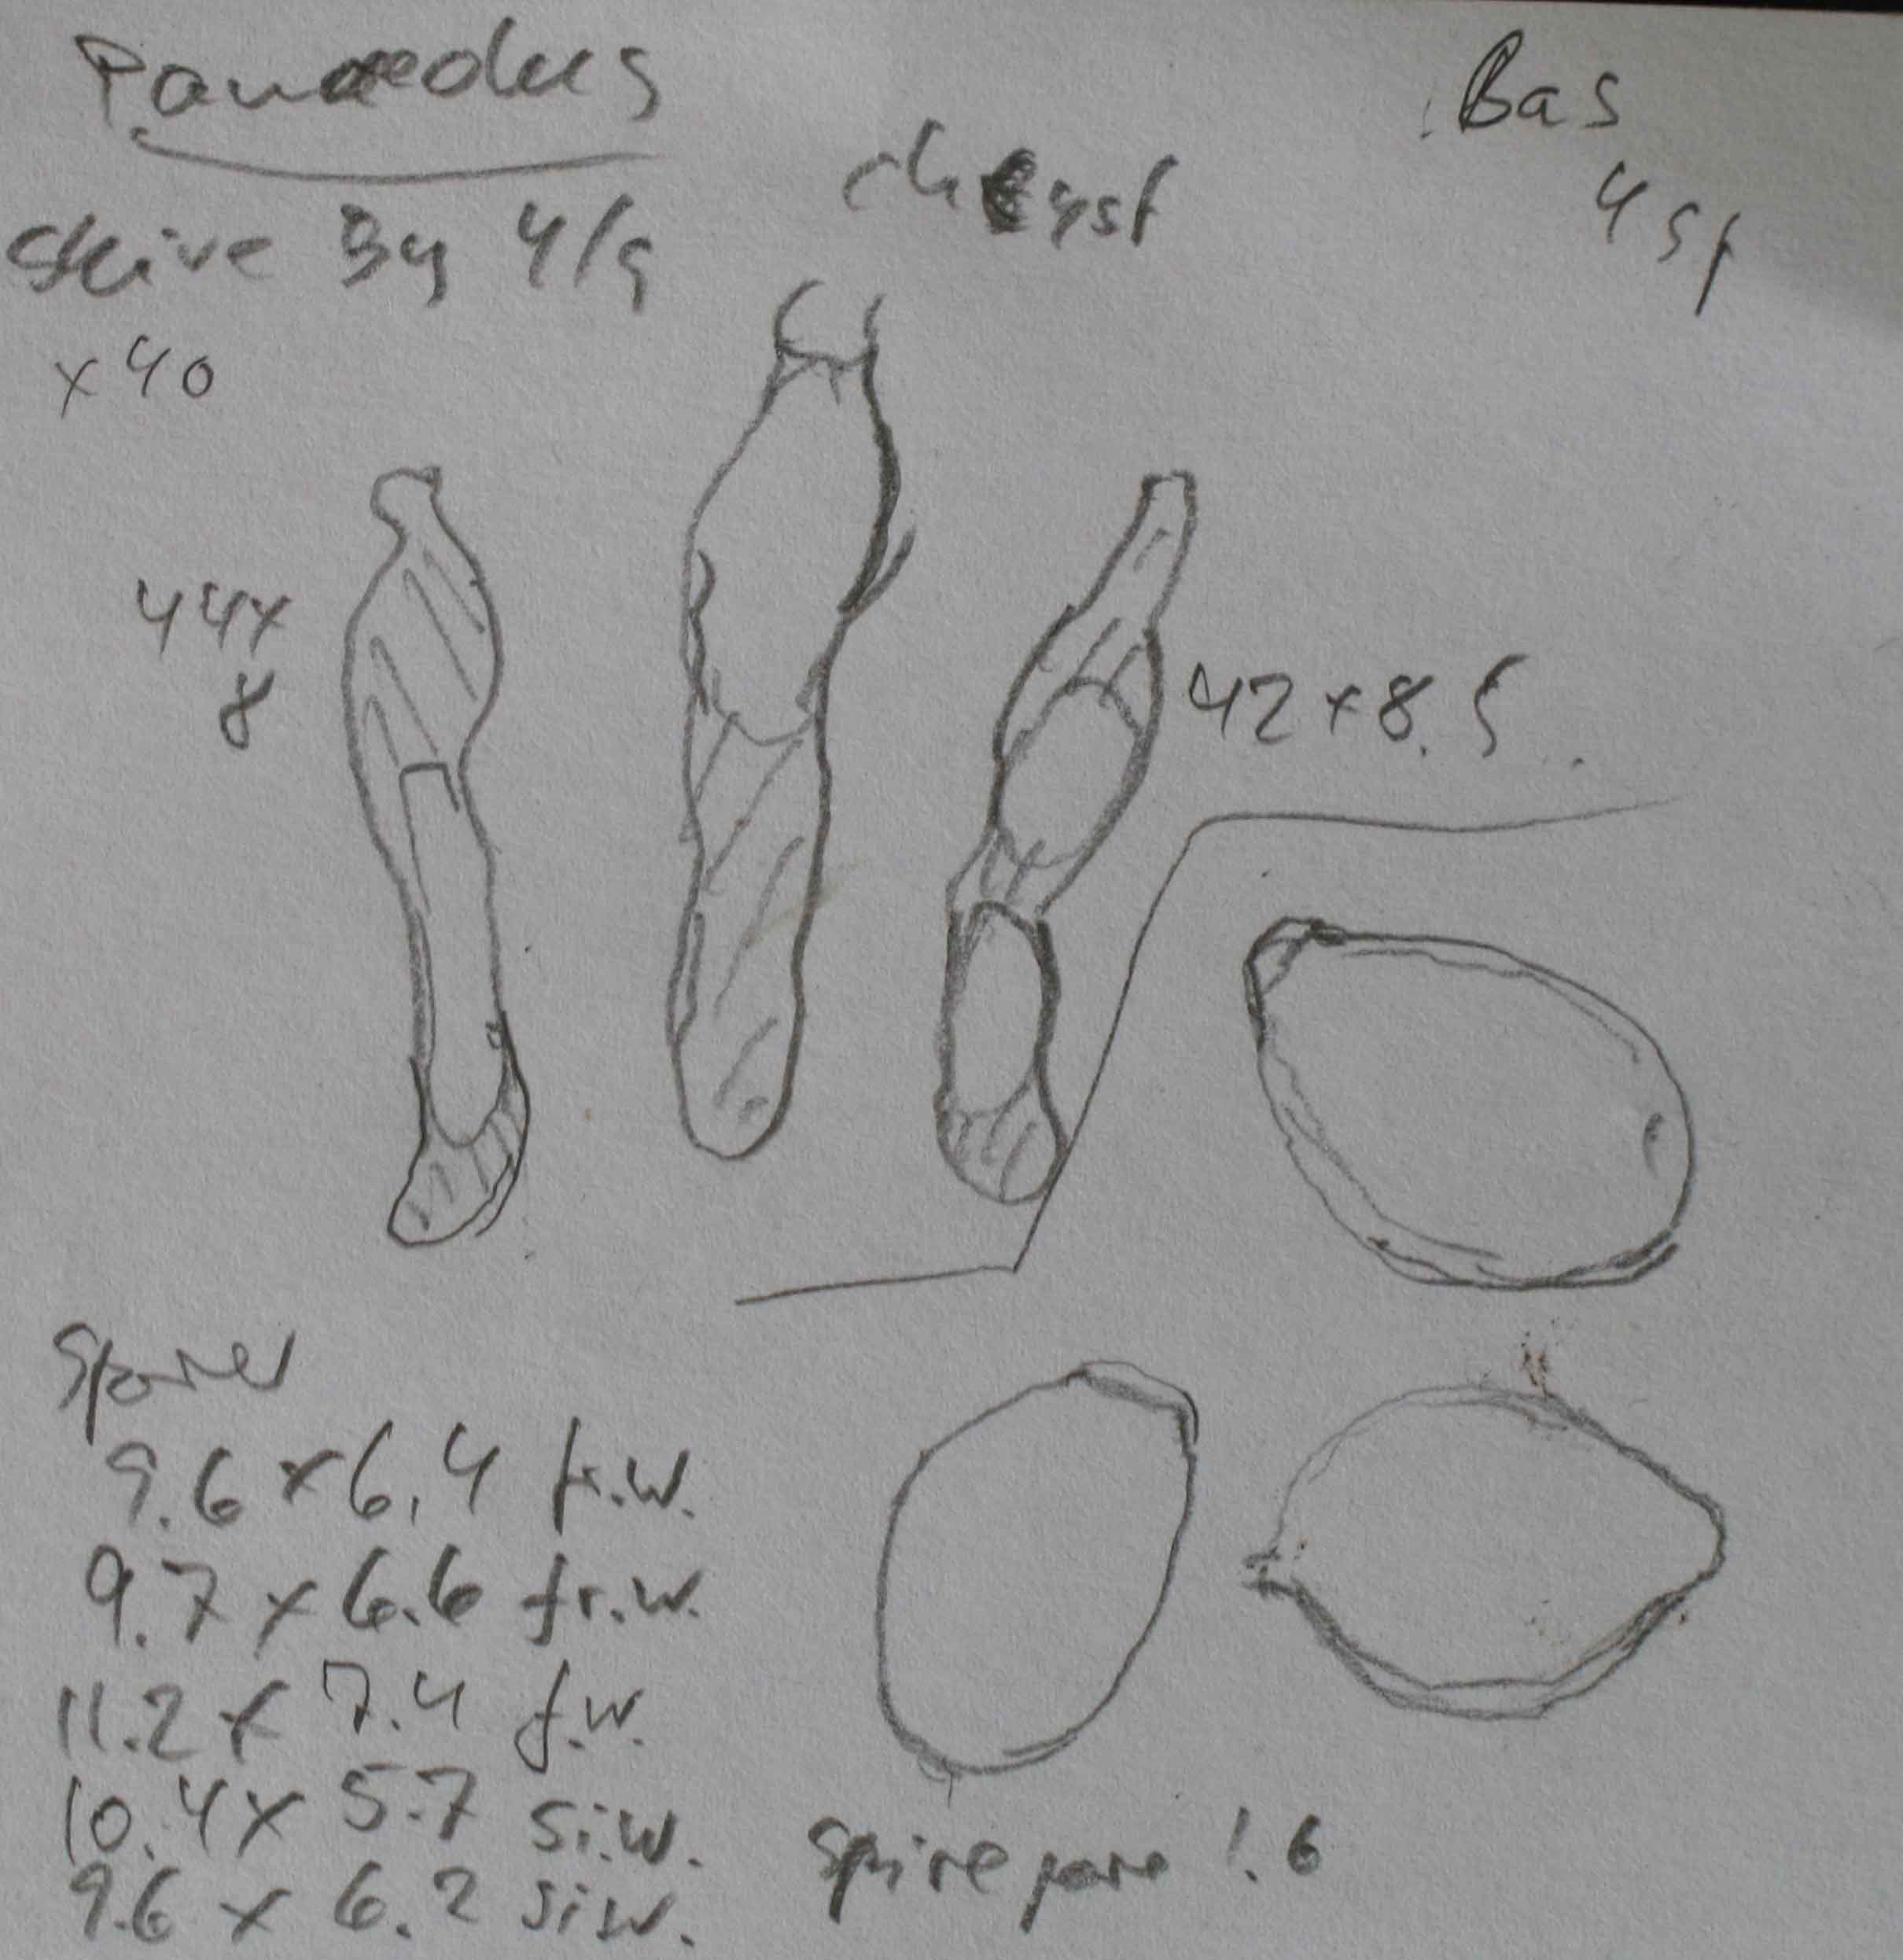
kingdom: Fungi
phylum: Basidiomycota
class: Agaricomycetes
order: Agaricales
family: Bolbitiaceae
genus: Panaeolus
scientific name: Panaeolus reticulatus
